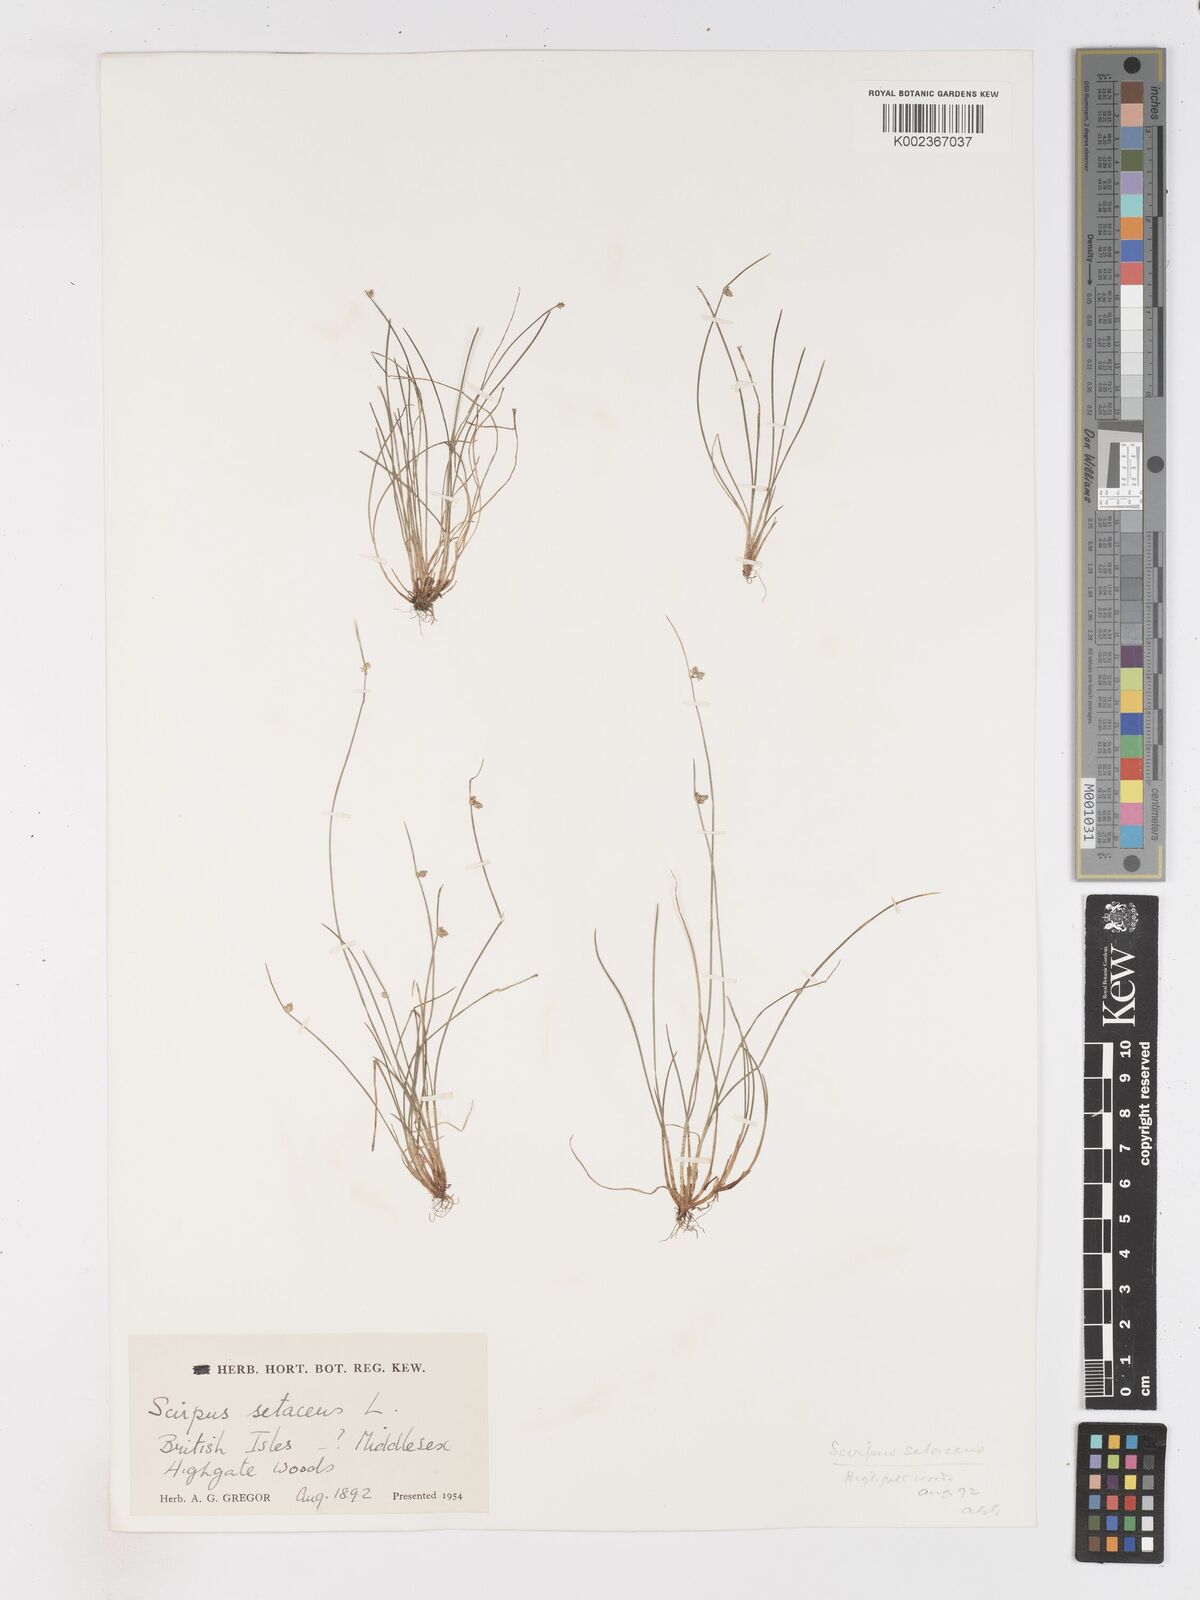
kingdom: Plantae
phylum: Tracheophyta
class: Liliopsida
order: Poales
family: Cyperaceae
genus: Isolepis
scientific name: Isolepis setacea
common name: Bristle club-rush
